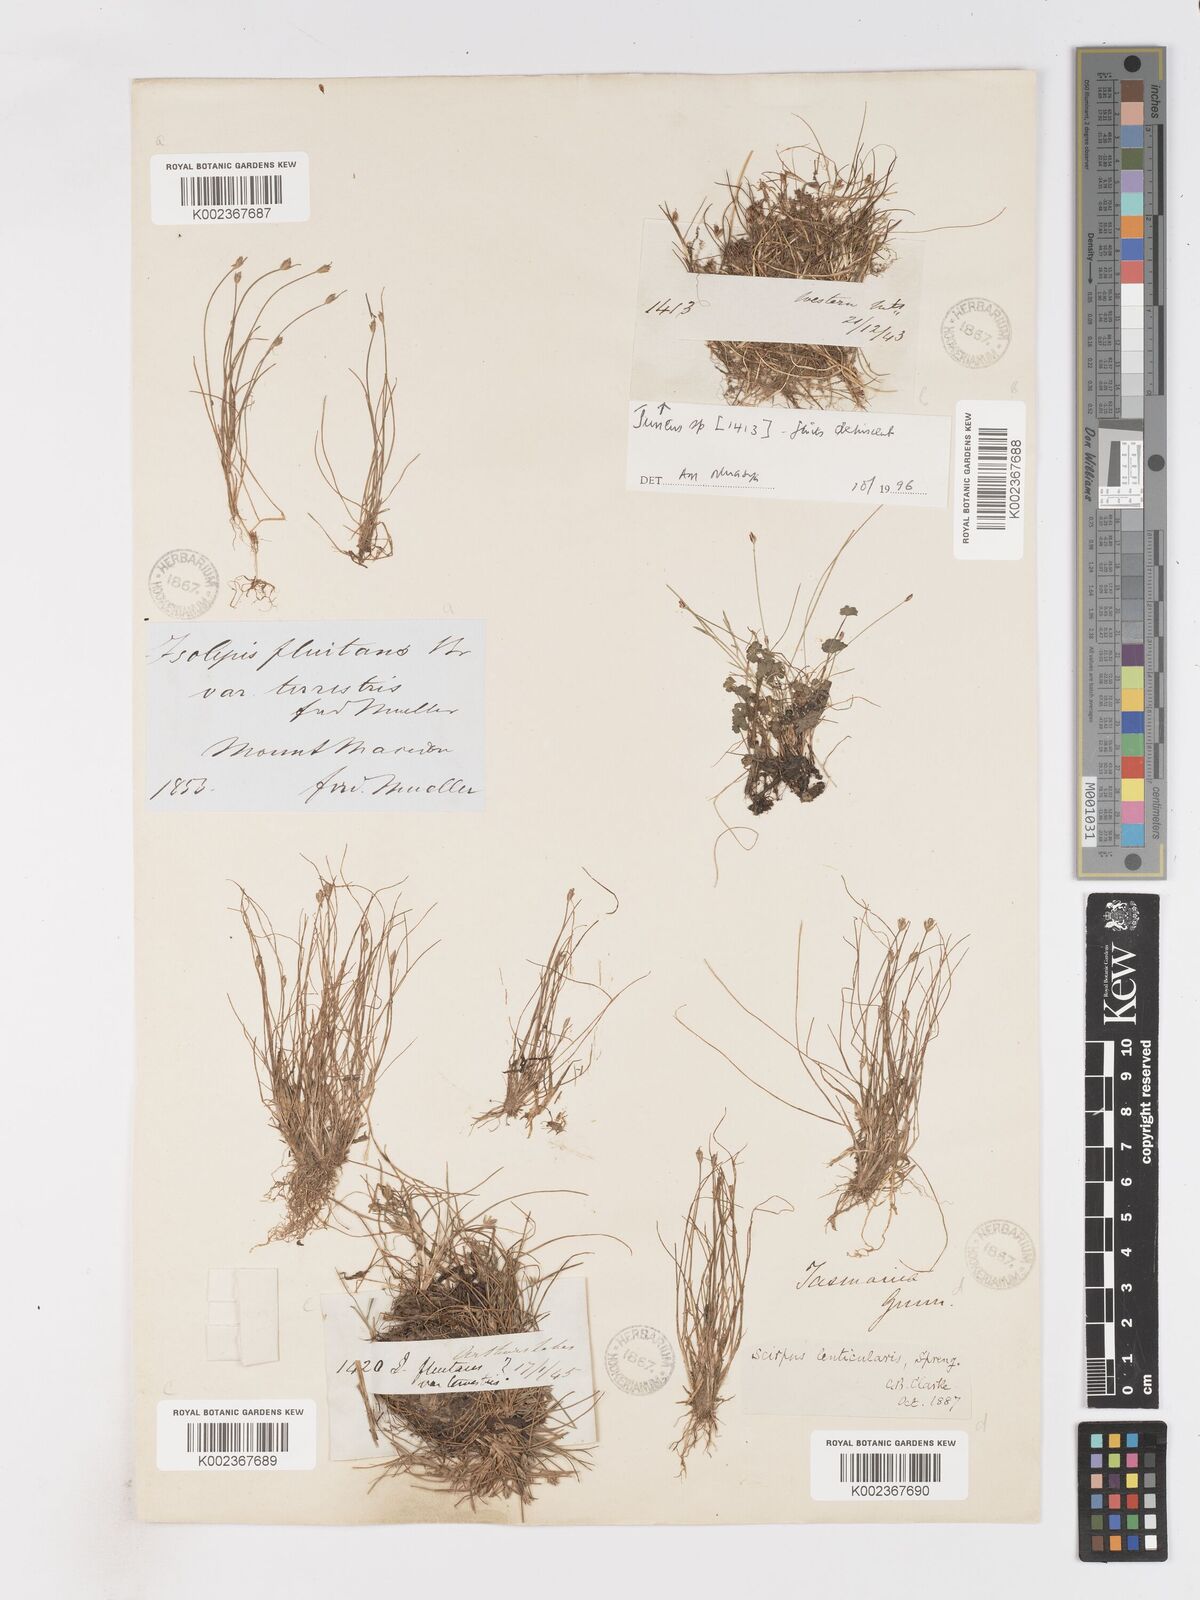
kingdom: Plantae
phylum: Tracheophyta
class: Liliopsida
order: Poales
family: Cyperaceae
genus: Isolepis
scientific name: Isolepis fluitans
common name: Floating club-rush
